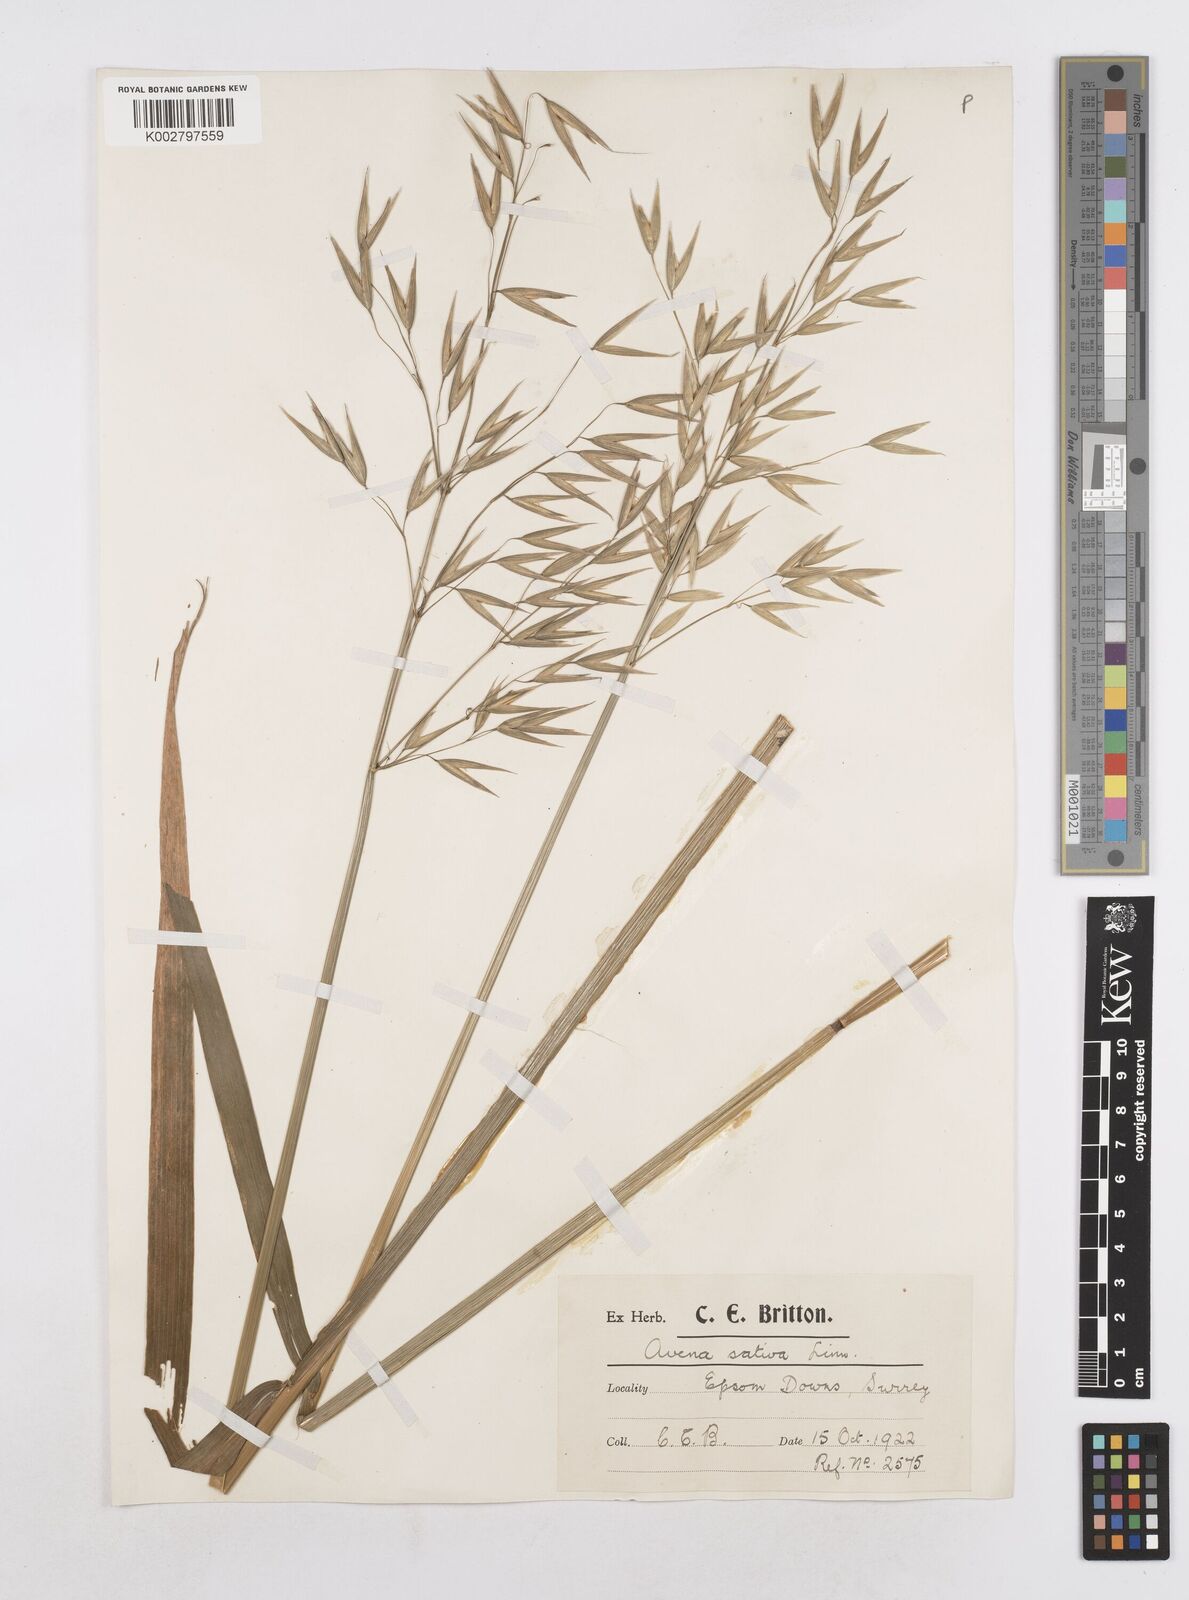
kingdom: Plantae
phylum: Tracheophyta
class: Liliopsida
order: Poales
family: Poaceae
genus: Avena
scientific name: Avena
